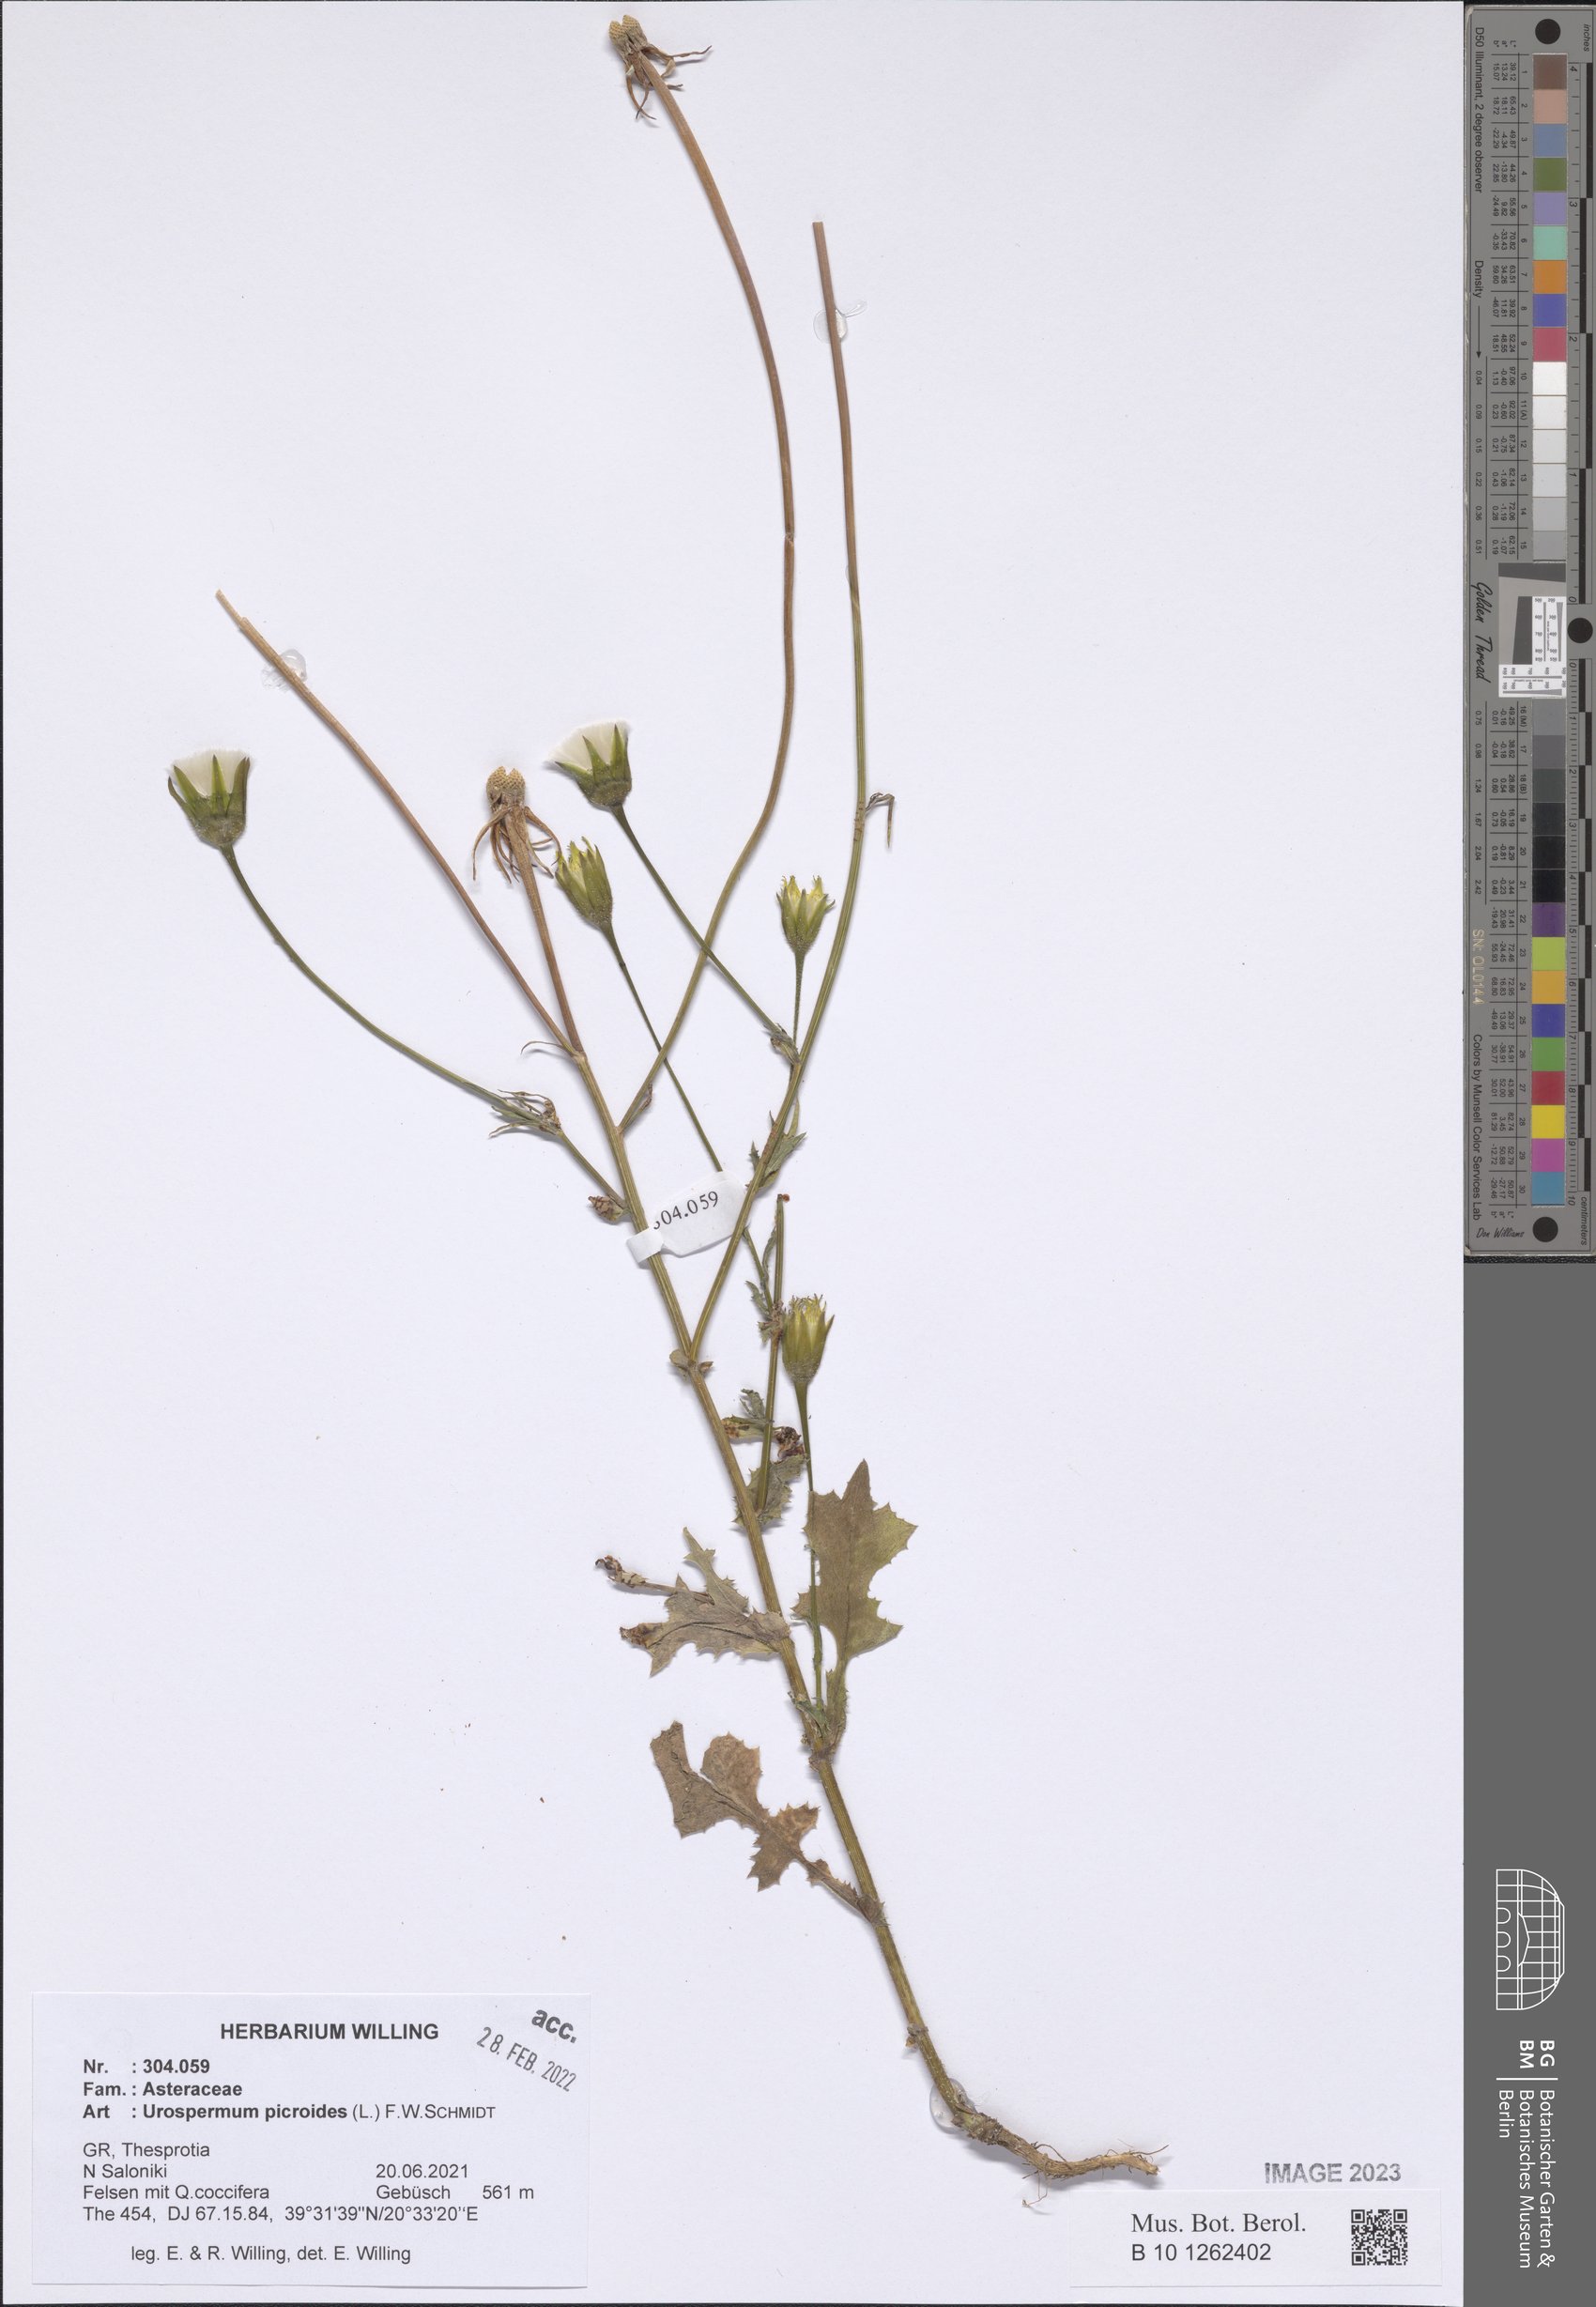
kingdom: Plantae
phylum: Tracheophyta
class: Magnoliopsida
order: Asterales
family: Asteraceae
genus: Urospermum
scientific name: Urospermum picroides
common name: False hawkbit
